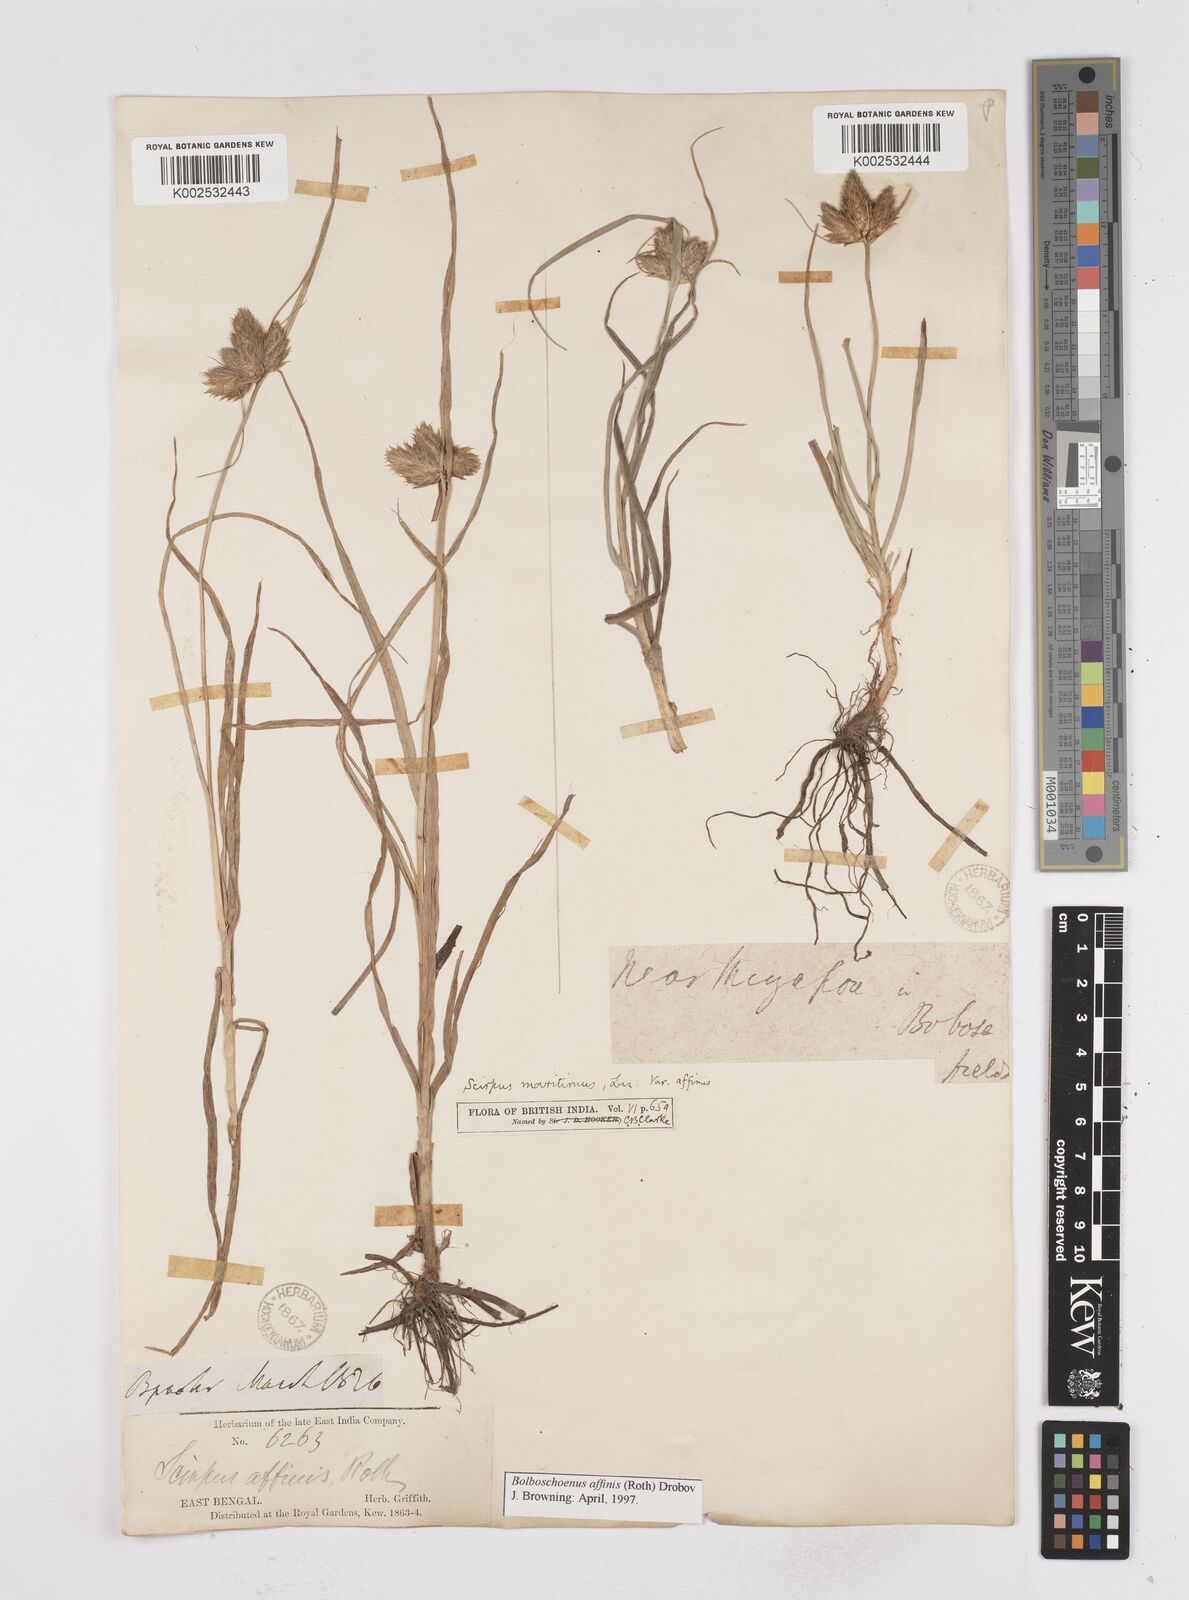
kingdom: Plantae
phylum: Tracheophyta
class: Liliopsida
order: Poales
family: Cyperaceae
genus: Bolboschoenus
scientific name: Bolboschoenus maritimus
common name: Sea club-rush
